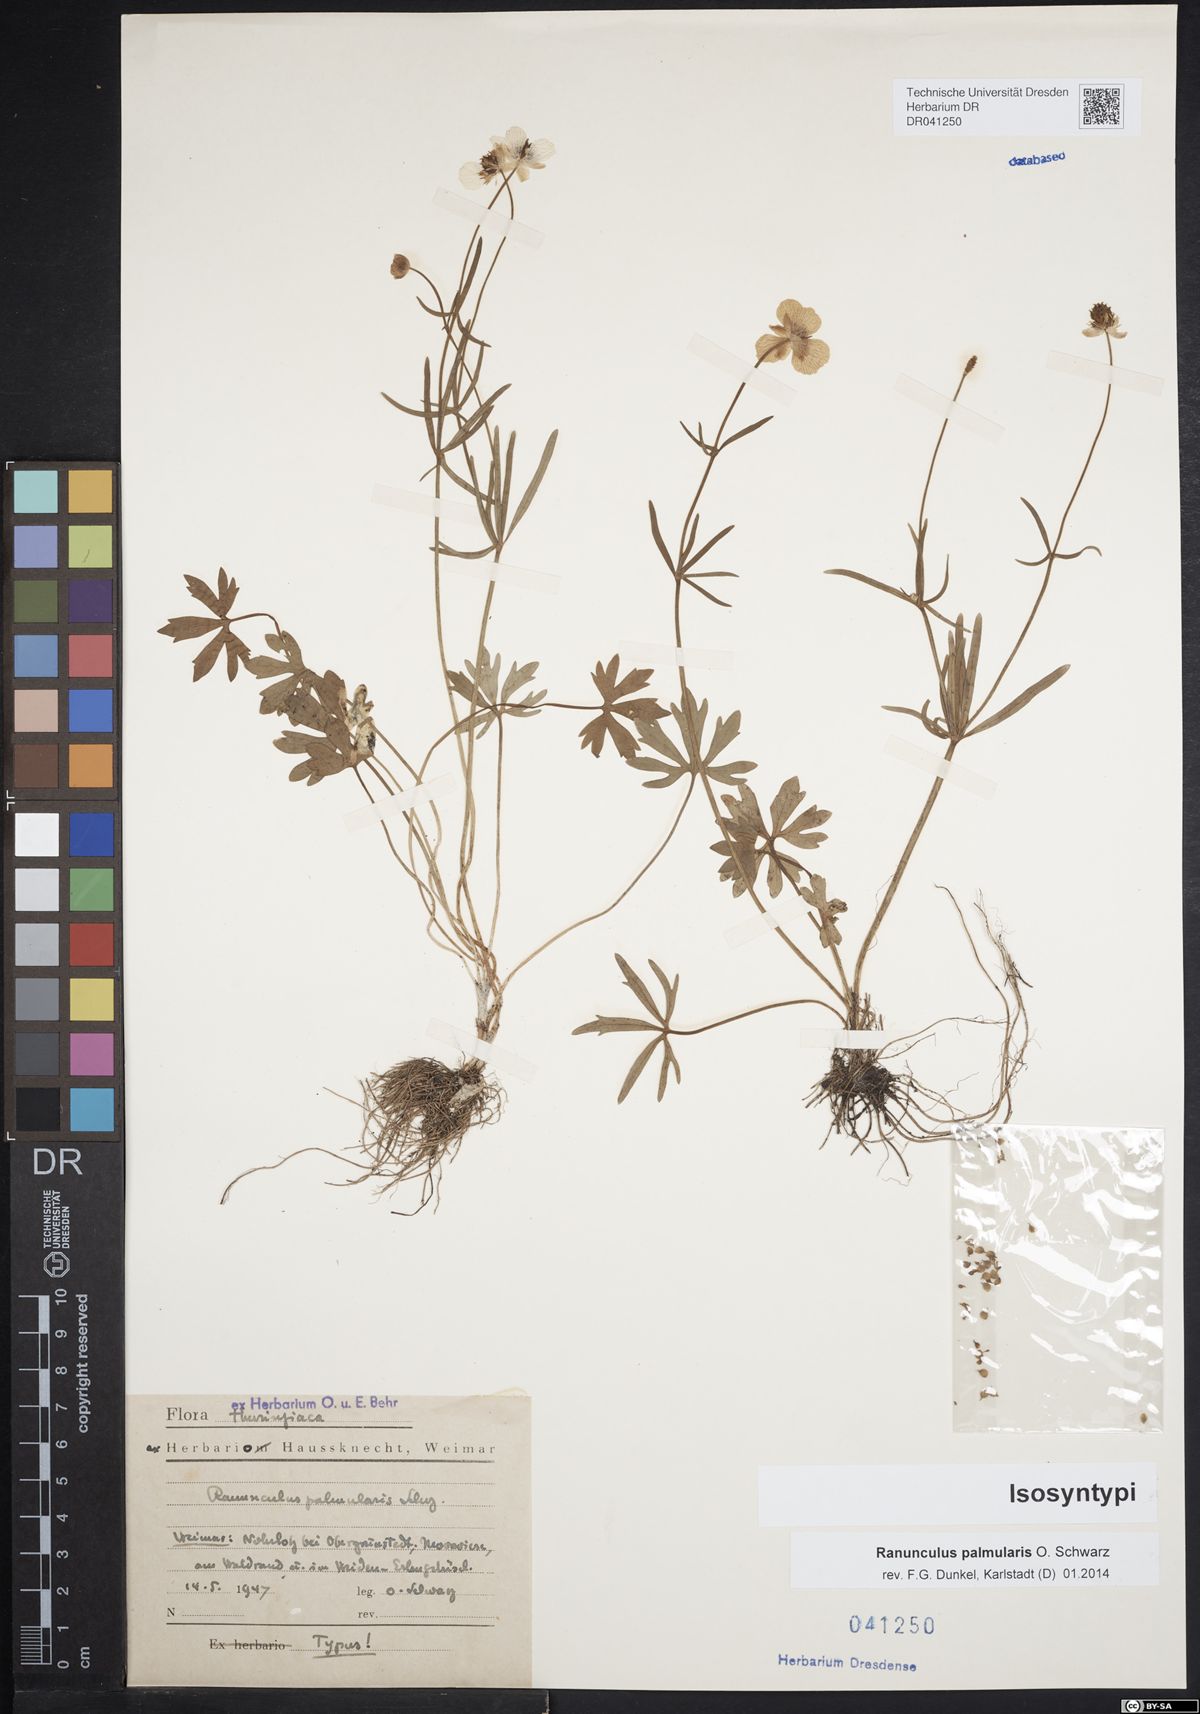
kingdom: Plantae
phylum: Tracheophyta
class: Magnoliopsida
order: Ranunculales
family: Ranunculaceae
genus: Ranunculus
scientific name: Ranunculus palmularis
